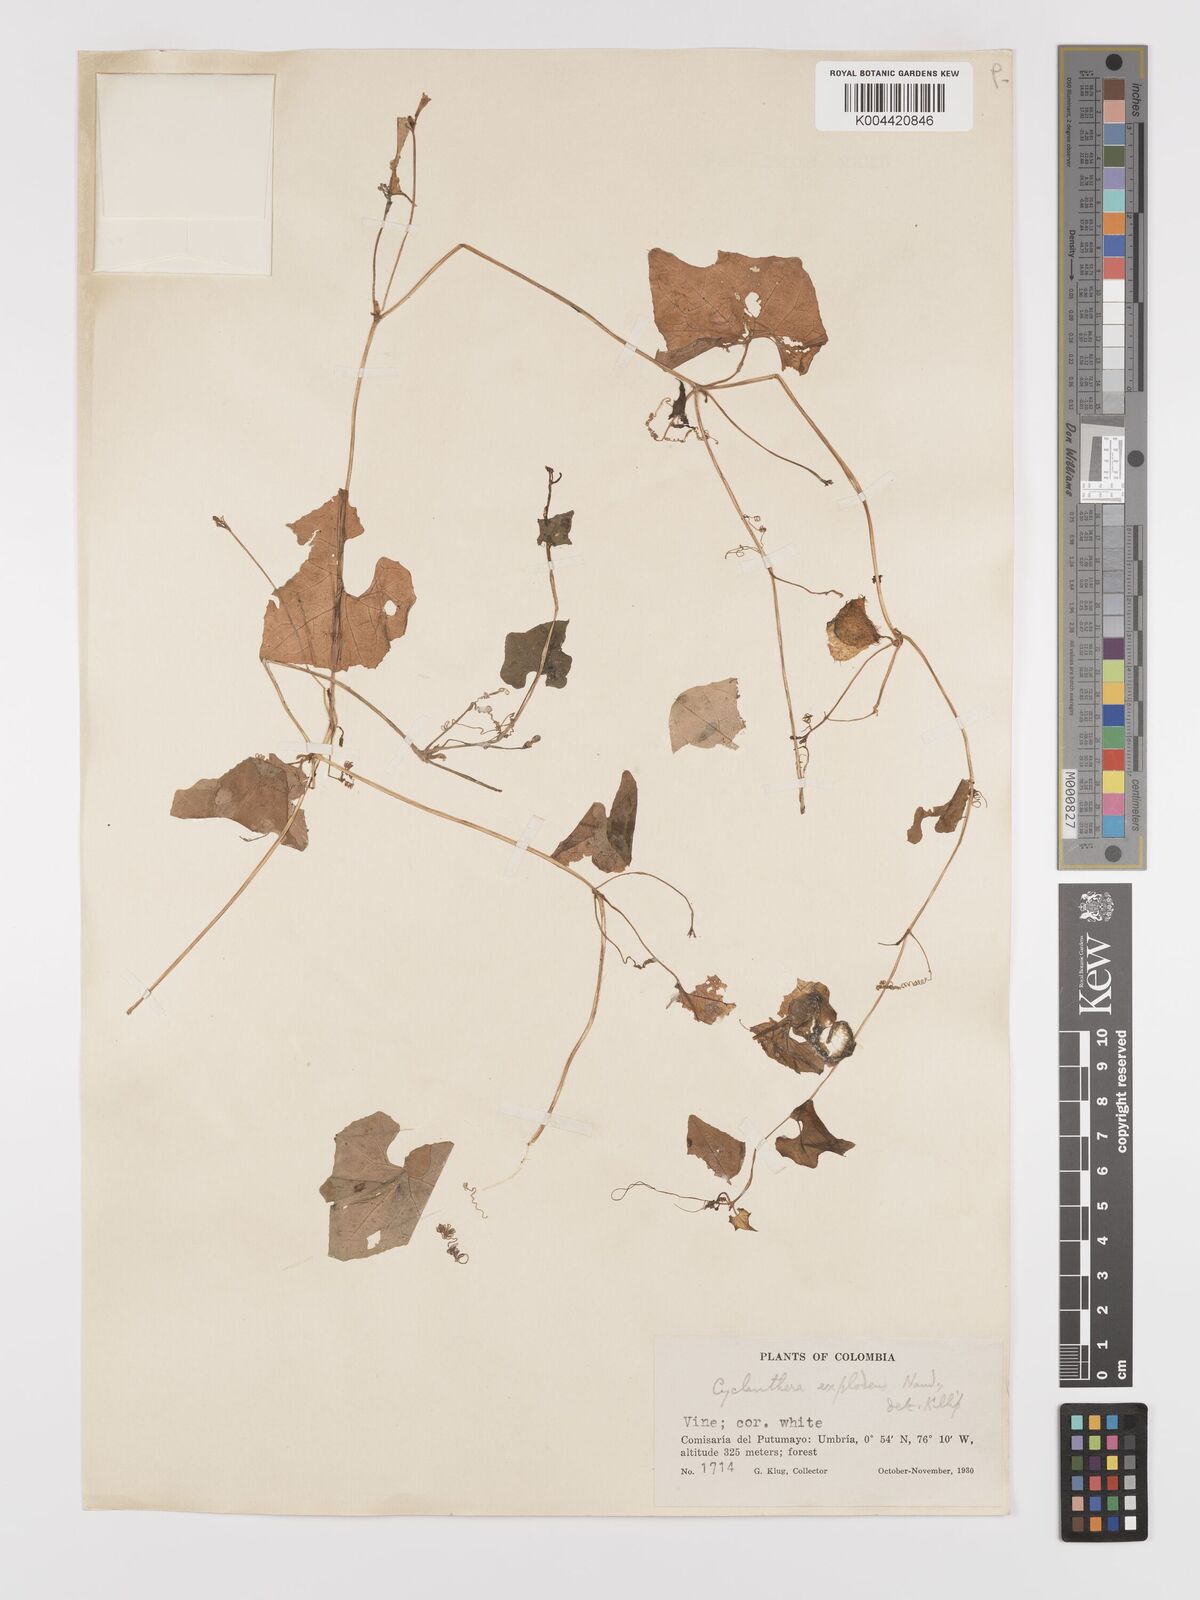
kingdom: Plantae
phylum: Tracheophyta
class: Magnoliopsida
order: Cucurbitales
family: Cucurbitaceae
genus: Cyclanthera
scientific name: Cyclanthera carthagenensis
